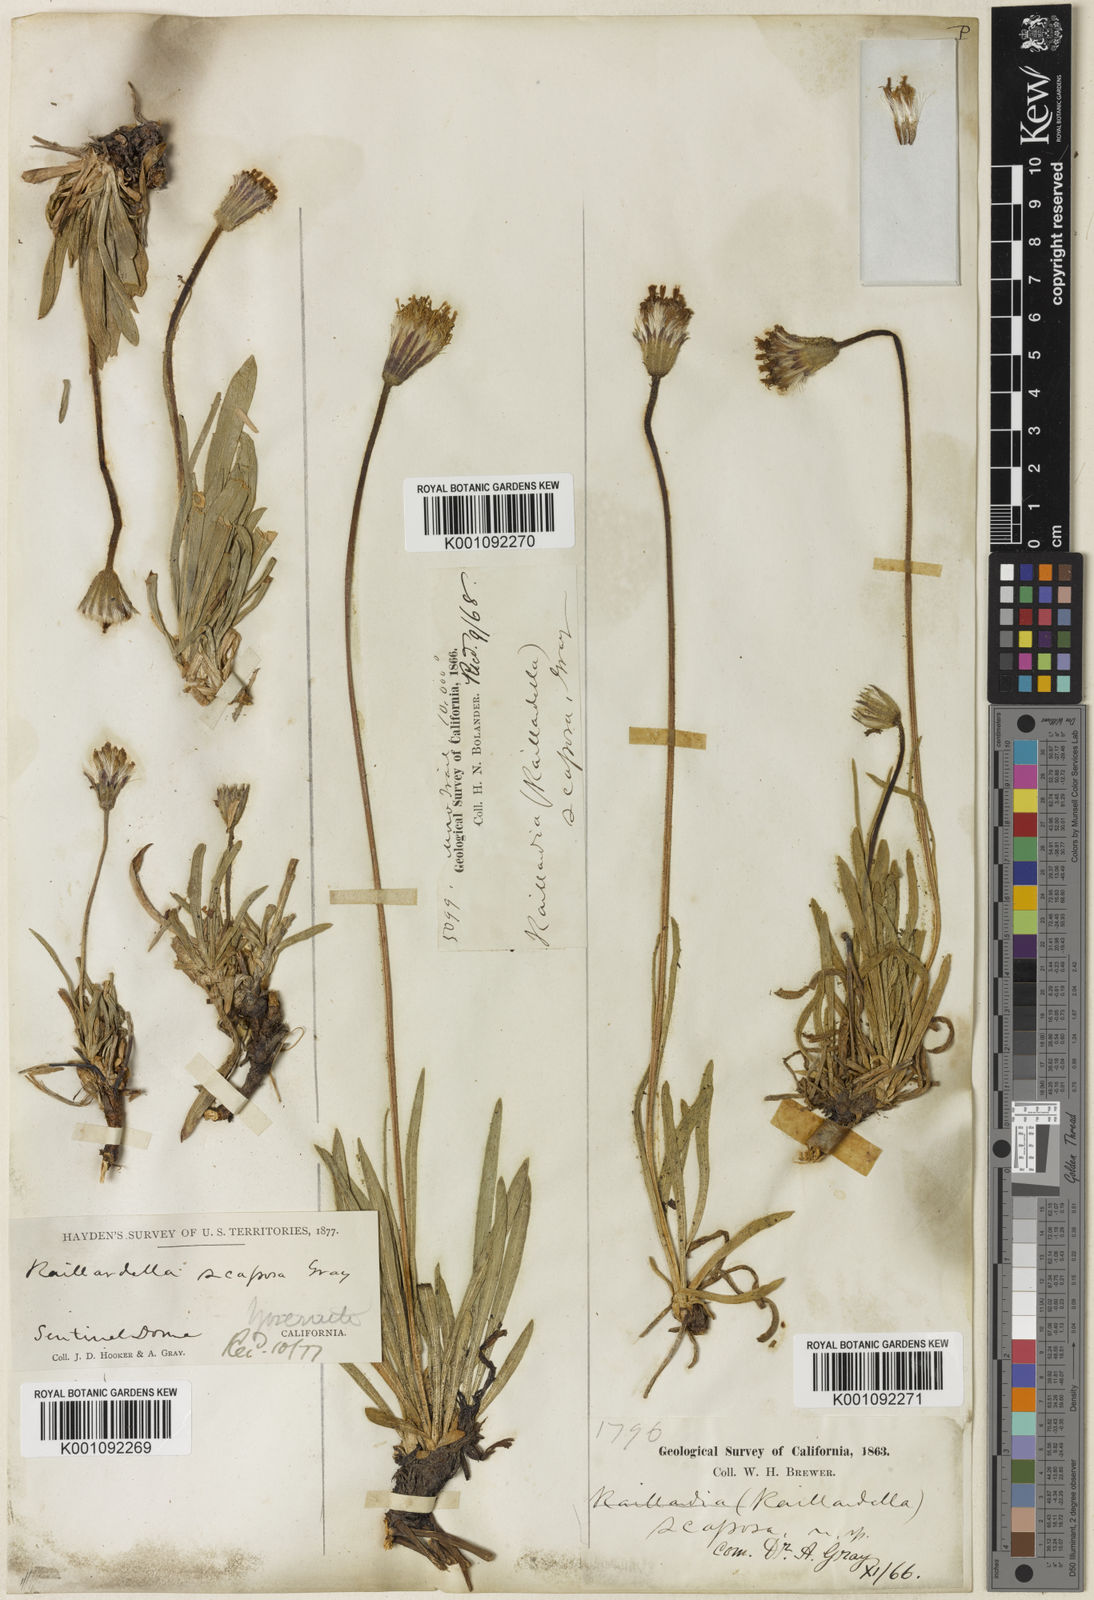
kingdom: Plantae
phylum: Tracheophyta
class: Magnoliopsida
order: Asterales
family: Asteraceae
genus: Raillardella
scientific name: Raillardella scaposa
